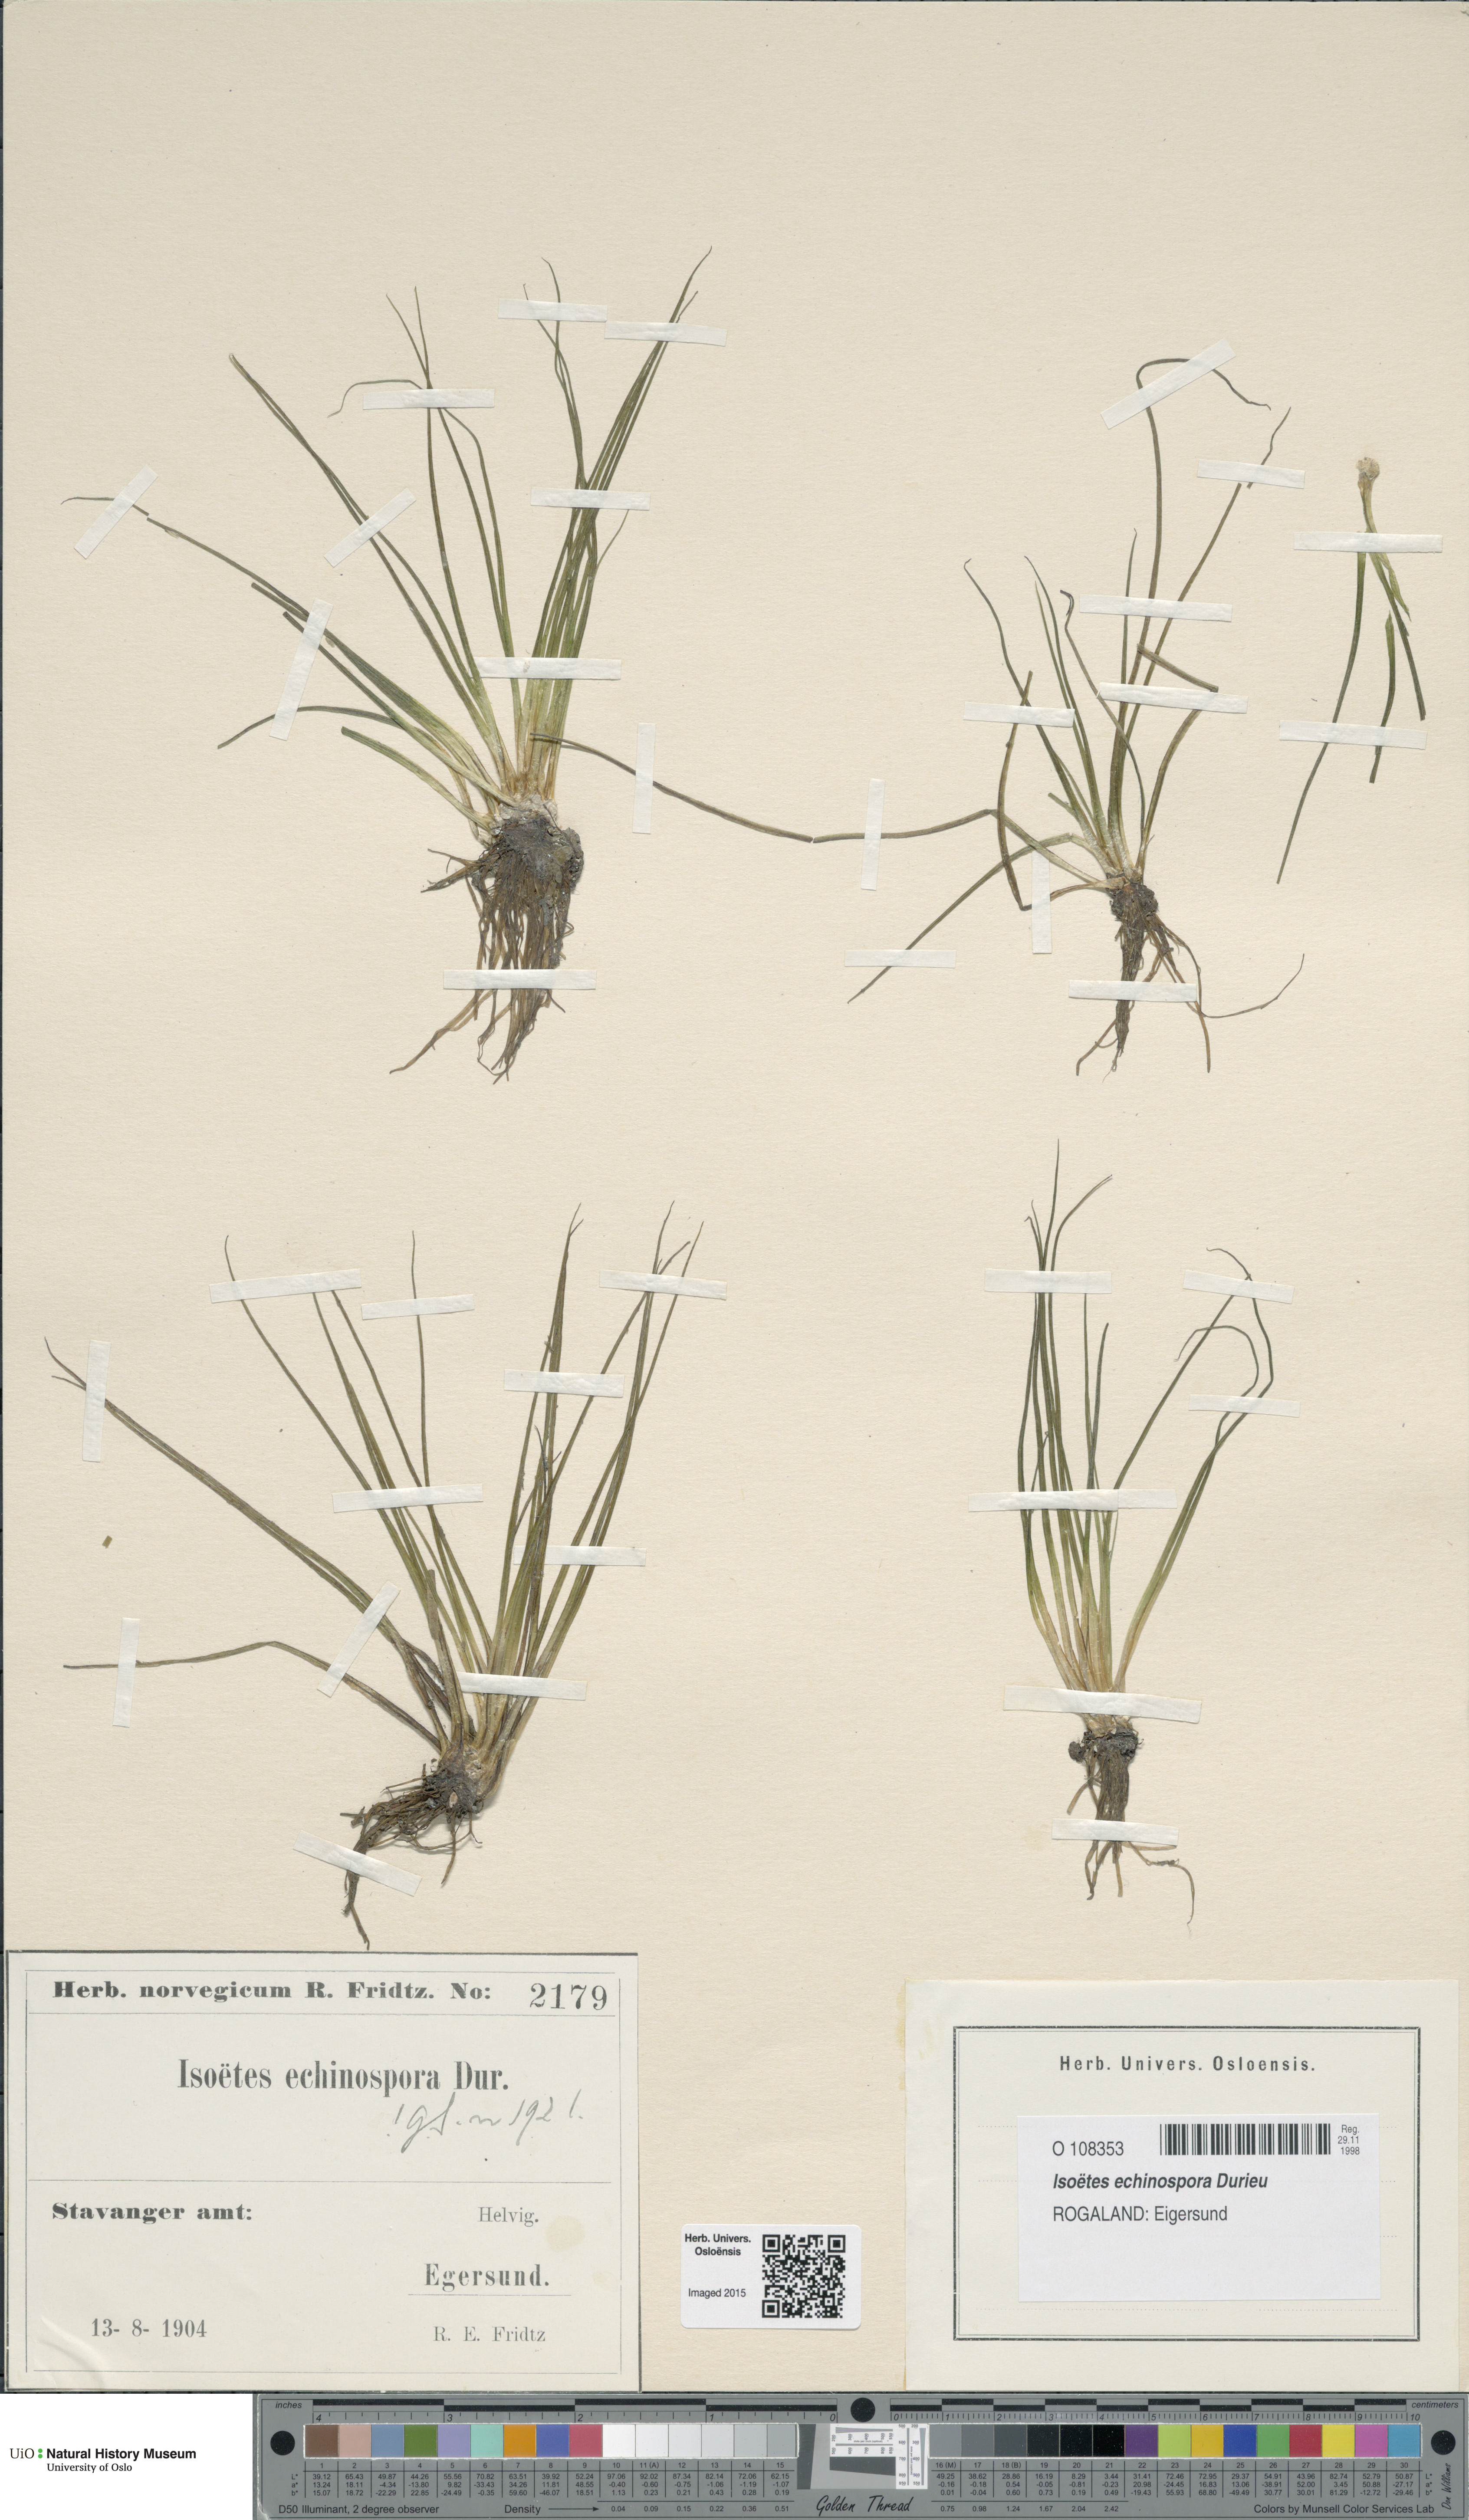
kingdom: Plantae
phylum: Tracheophyta
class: Lycopodiopsida
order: Isoetales
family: Isoetaceae
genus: Isoetes
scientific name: Isoetes echinospora
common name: Spring quillwort
